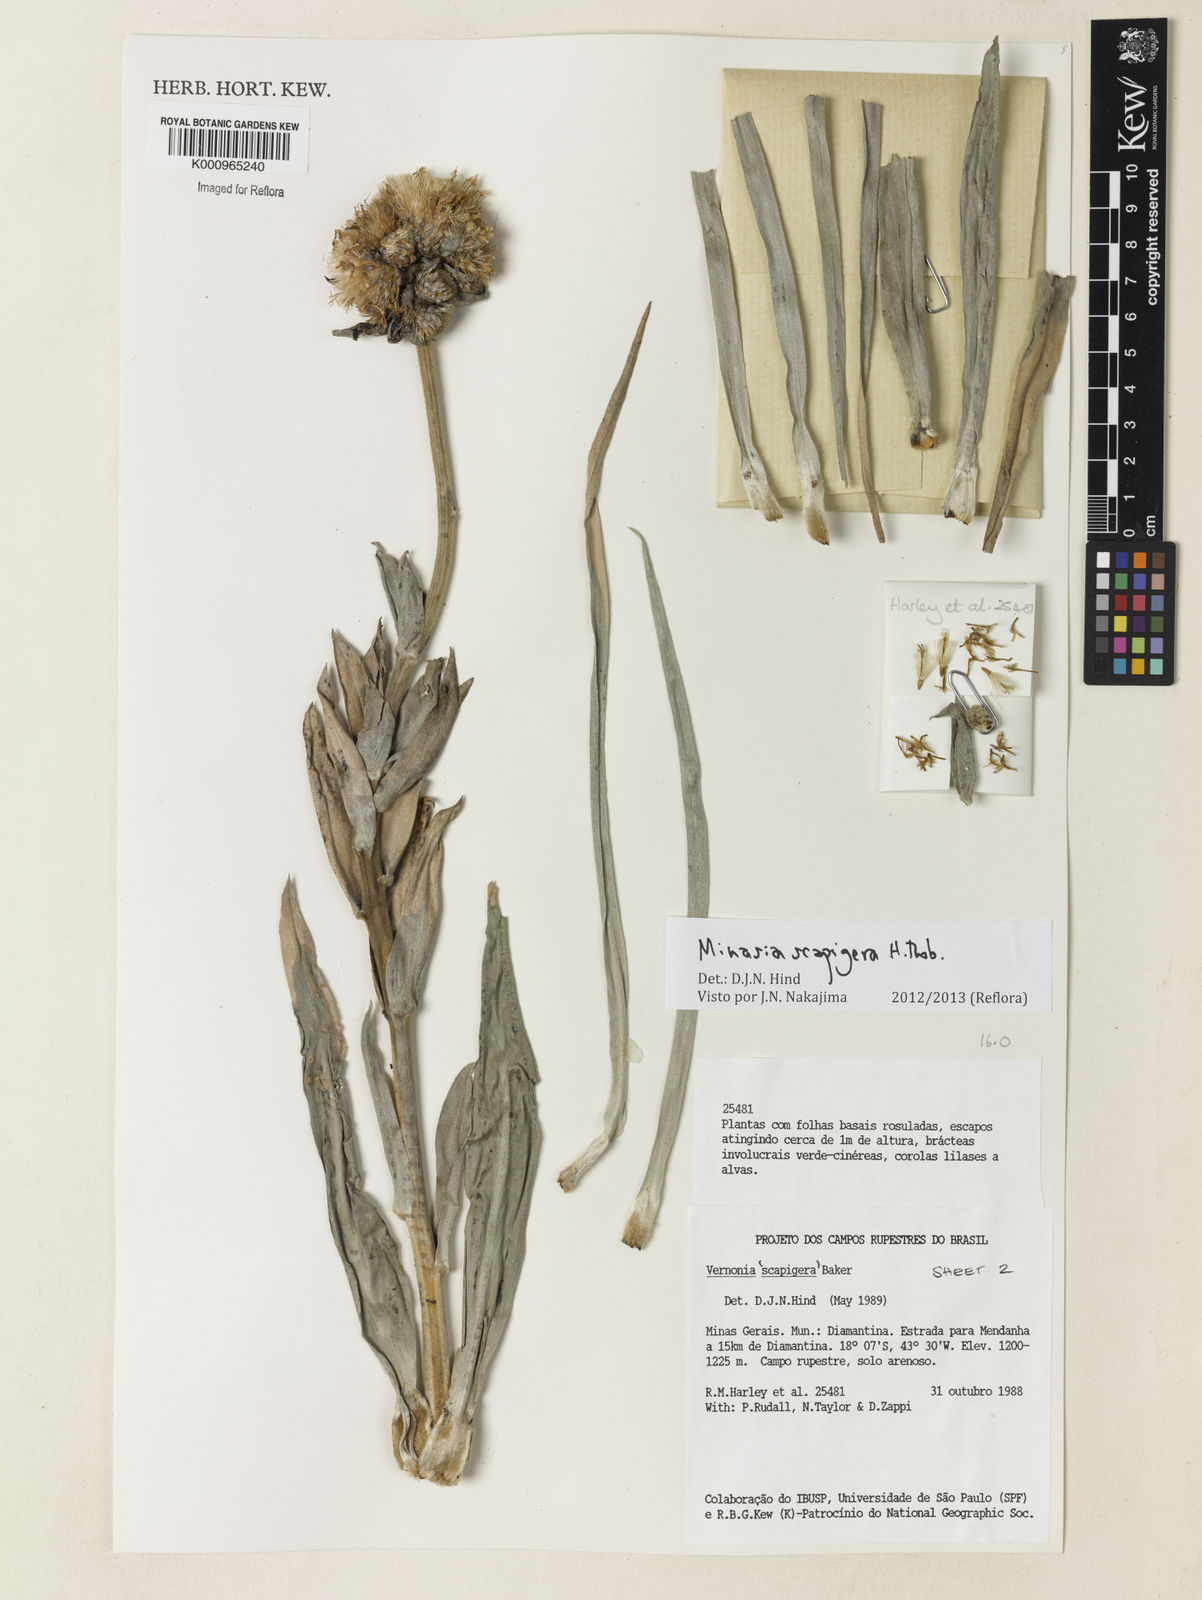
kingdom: Plantae
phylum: Tracheophyta
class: Magnoliopsida
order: Asterales
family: Asteraceae
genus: Minasia
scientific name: Minasia scapigera
